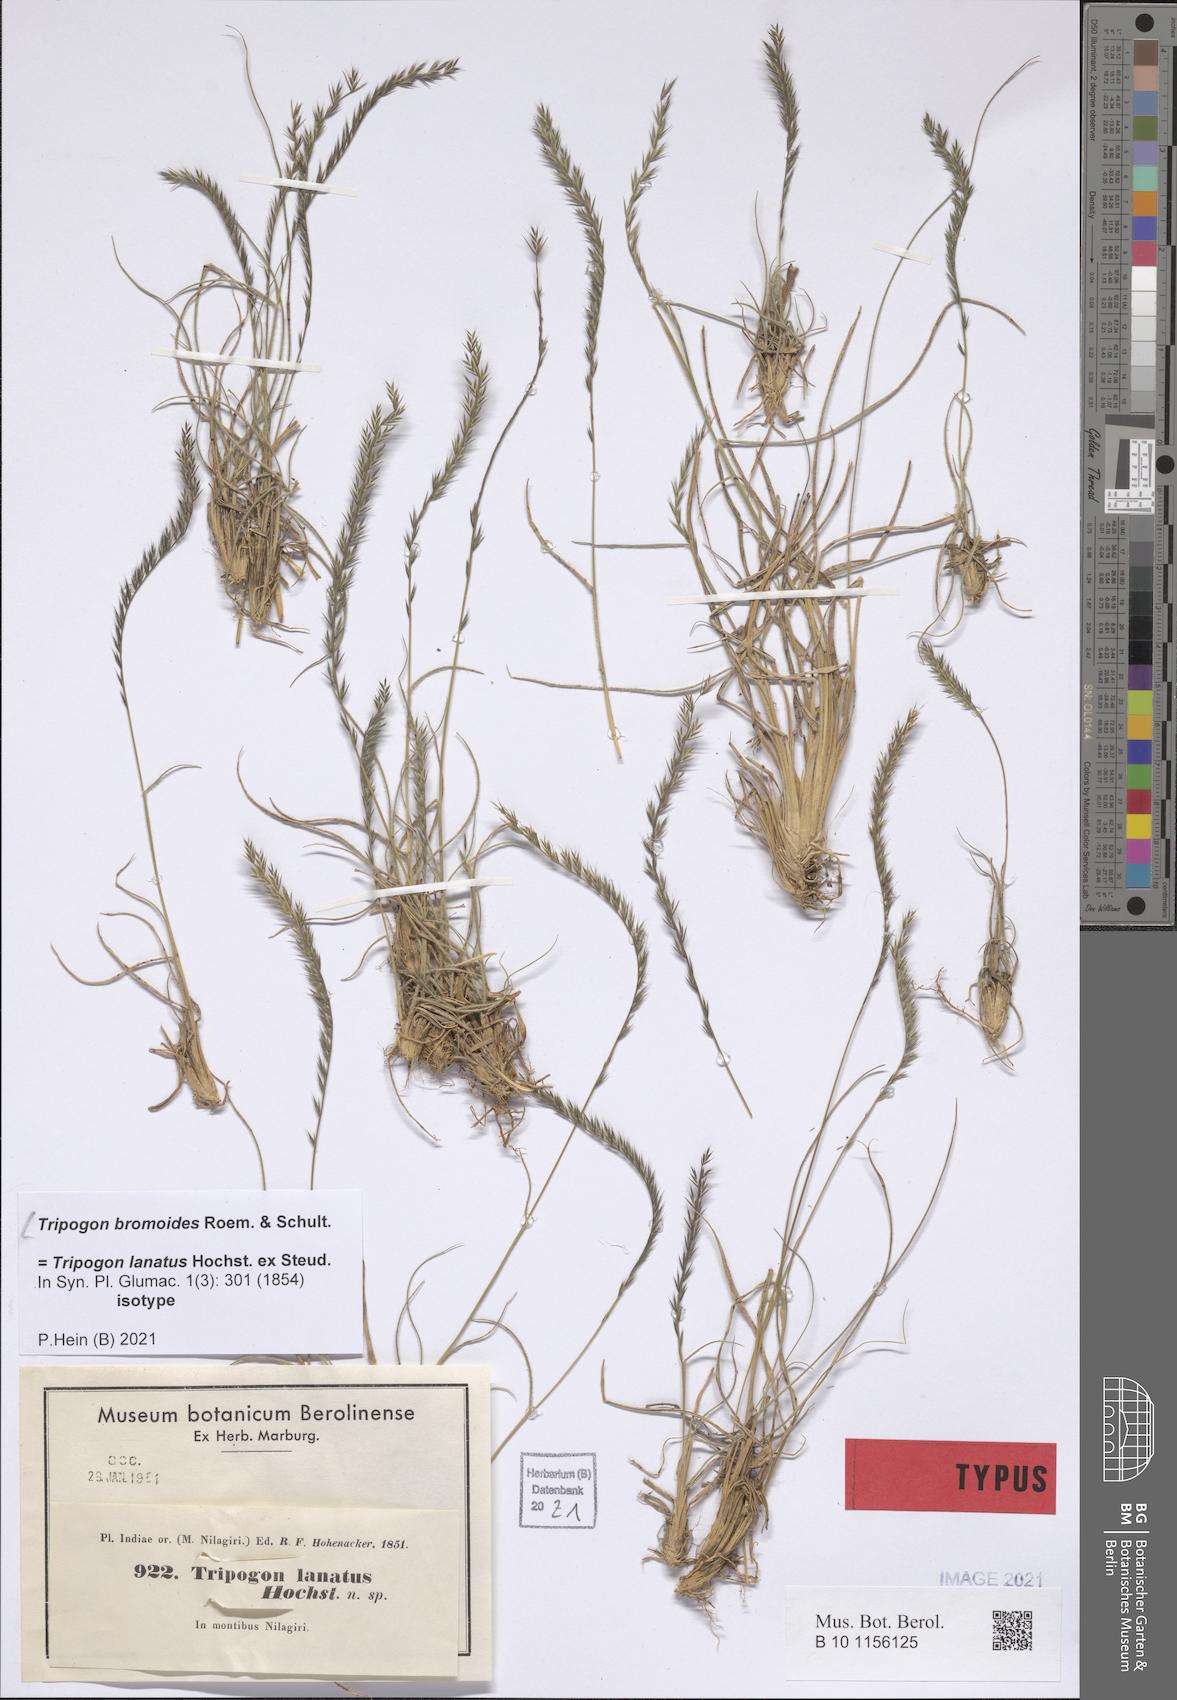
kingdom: Plantae
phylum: Tracheophyta
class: Liliopsida
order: Poales
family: Poaceae
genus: Tripogon
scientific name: Tripogon bromoides
